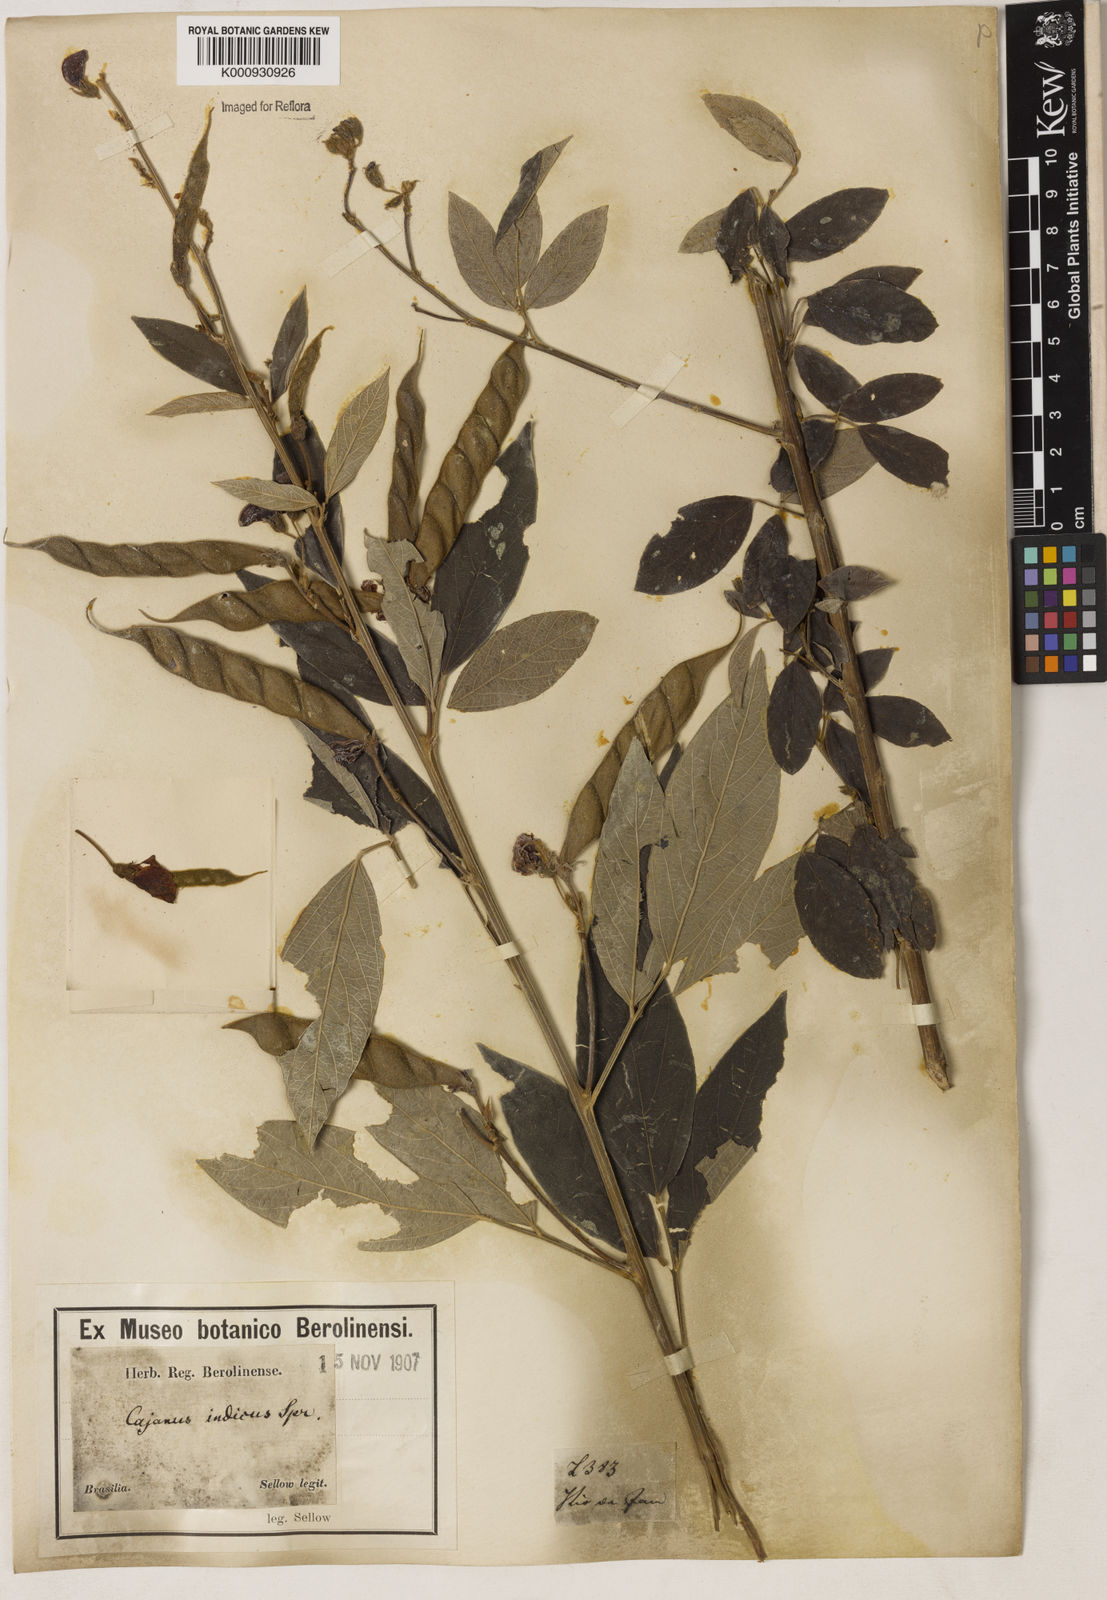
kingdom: Plantae
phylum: Tracheophyta
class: Magnoliopsida
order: Fabales
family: Fabaceae
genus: Cajanus
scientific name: Cajanus
